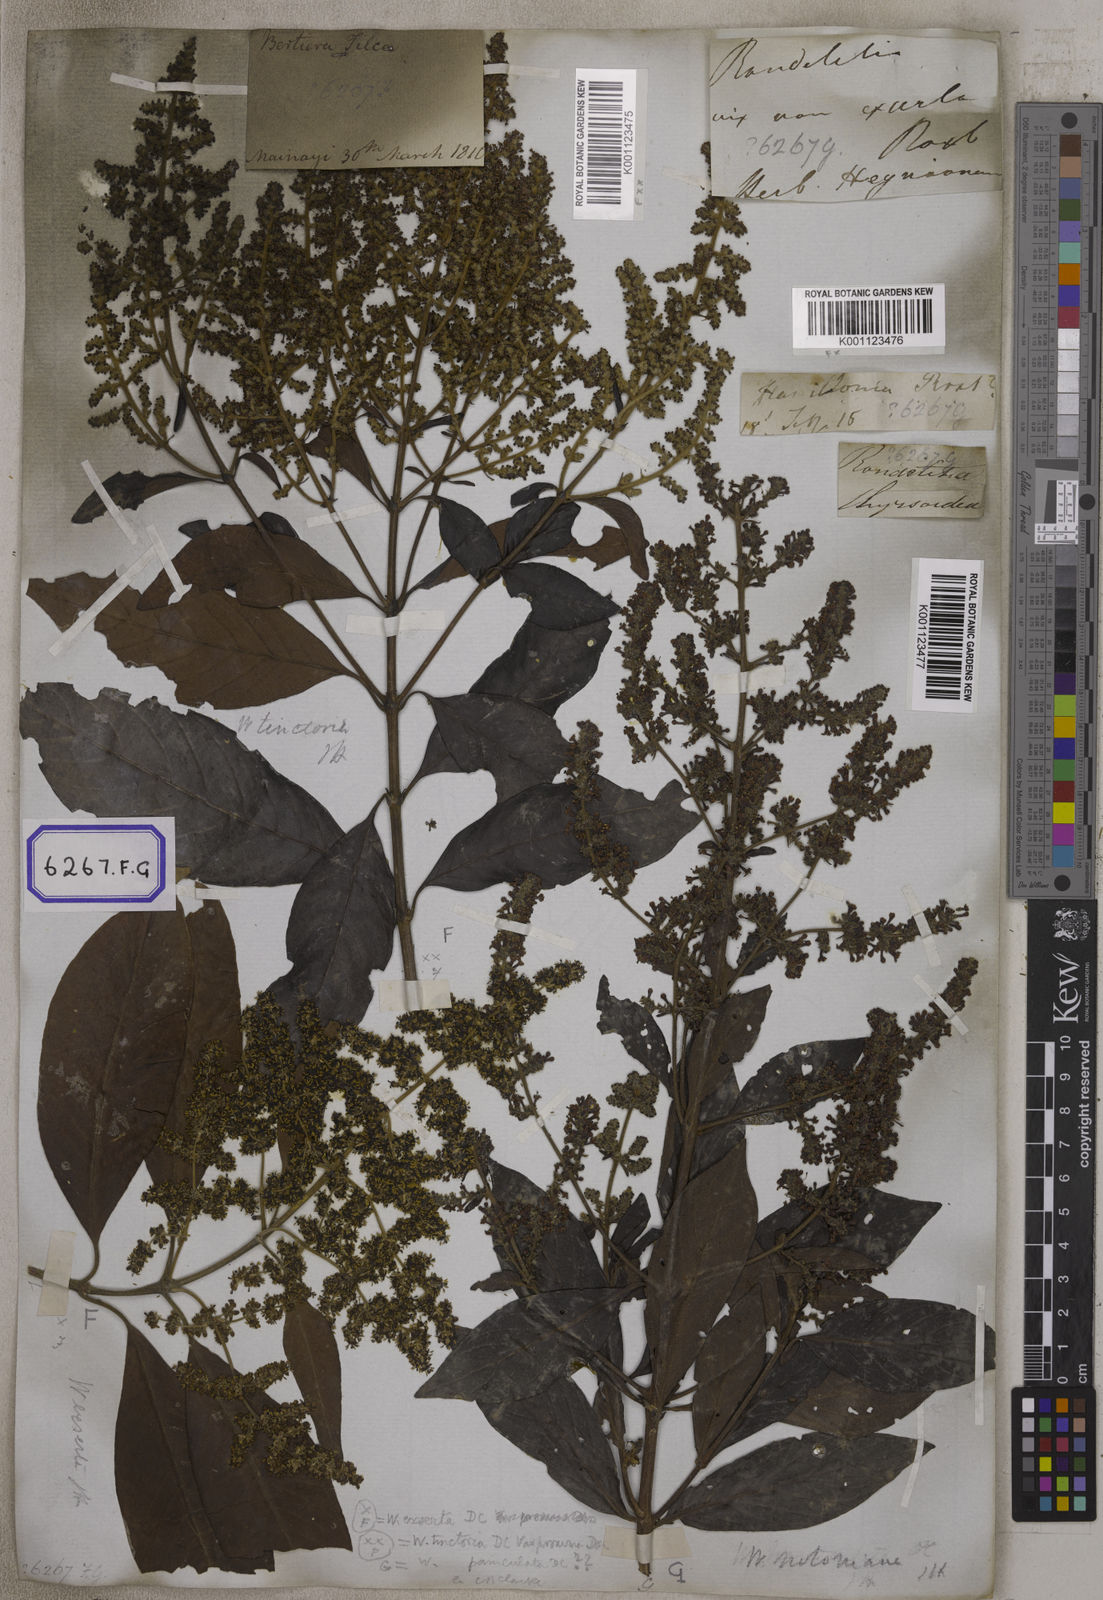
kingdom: Plantae
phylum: Tracheophyta
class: Magnoliopsida
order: Gentianales
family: Rubiaceae
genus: Wendlandia
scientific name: Wendlandia heynei
